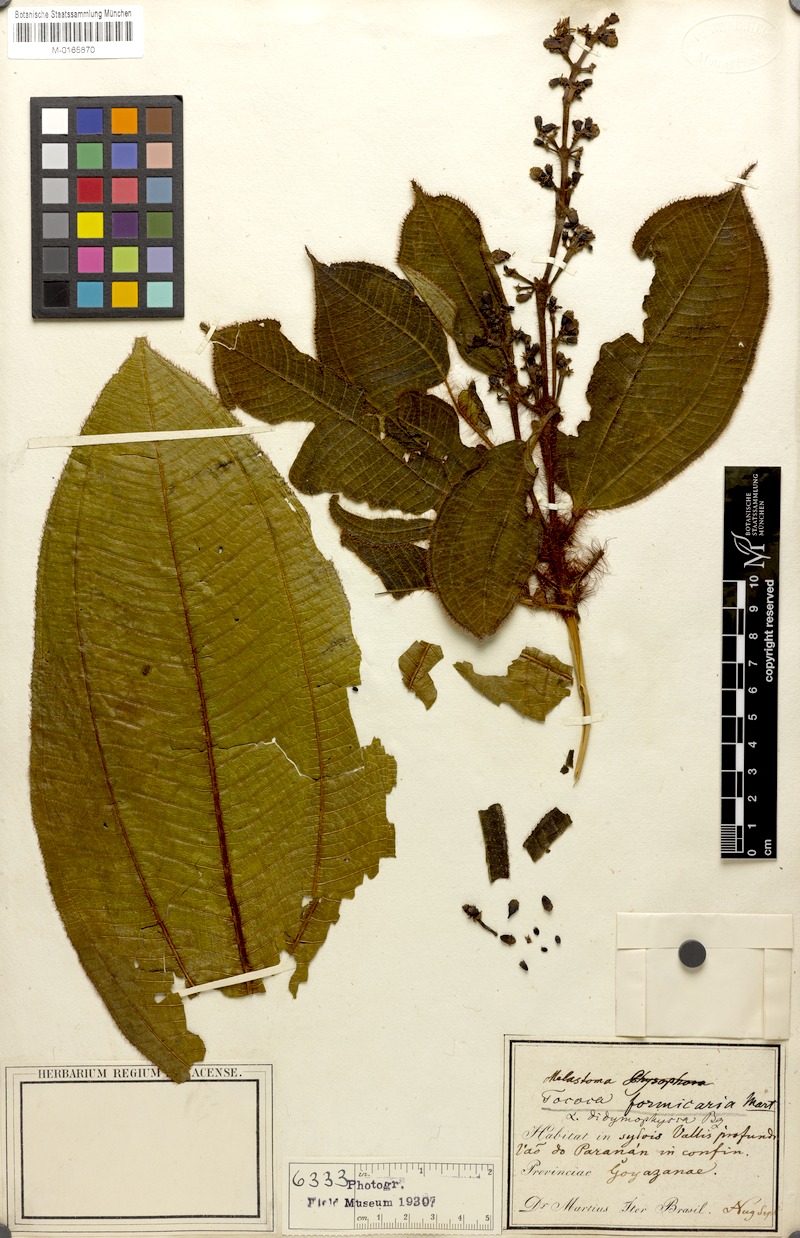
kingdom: Plantae
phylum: Tracheophyta
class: Magnoliopsida
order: Myrtales
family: Melastomataceae
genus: Miconia
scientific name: Miconia tococa
